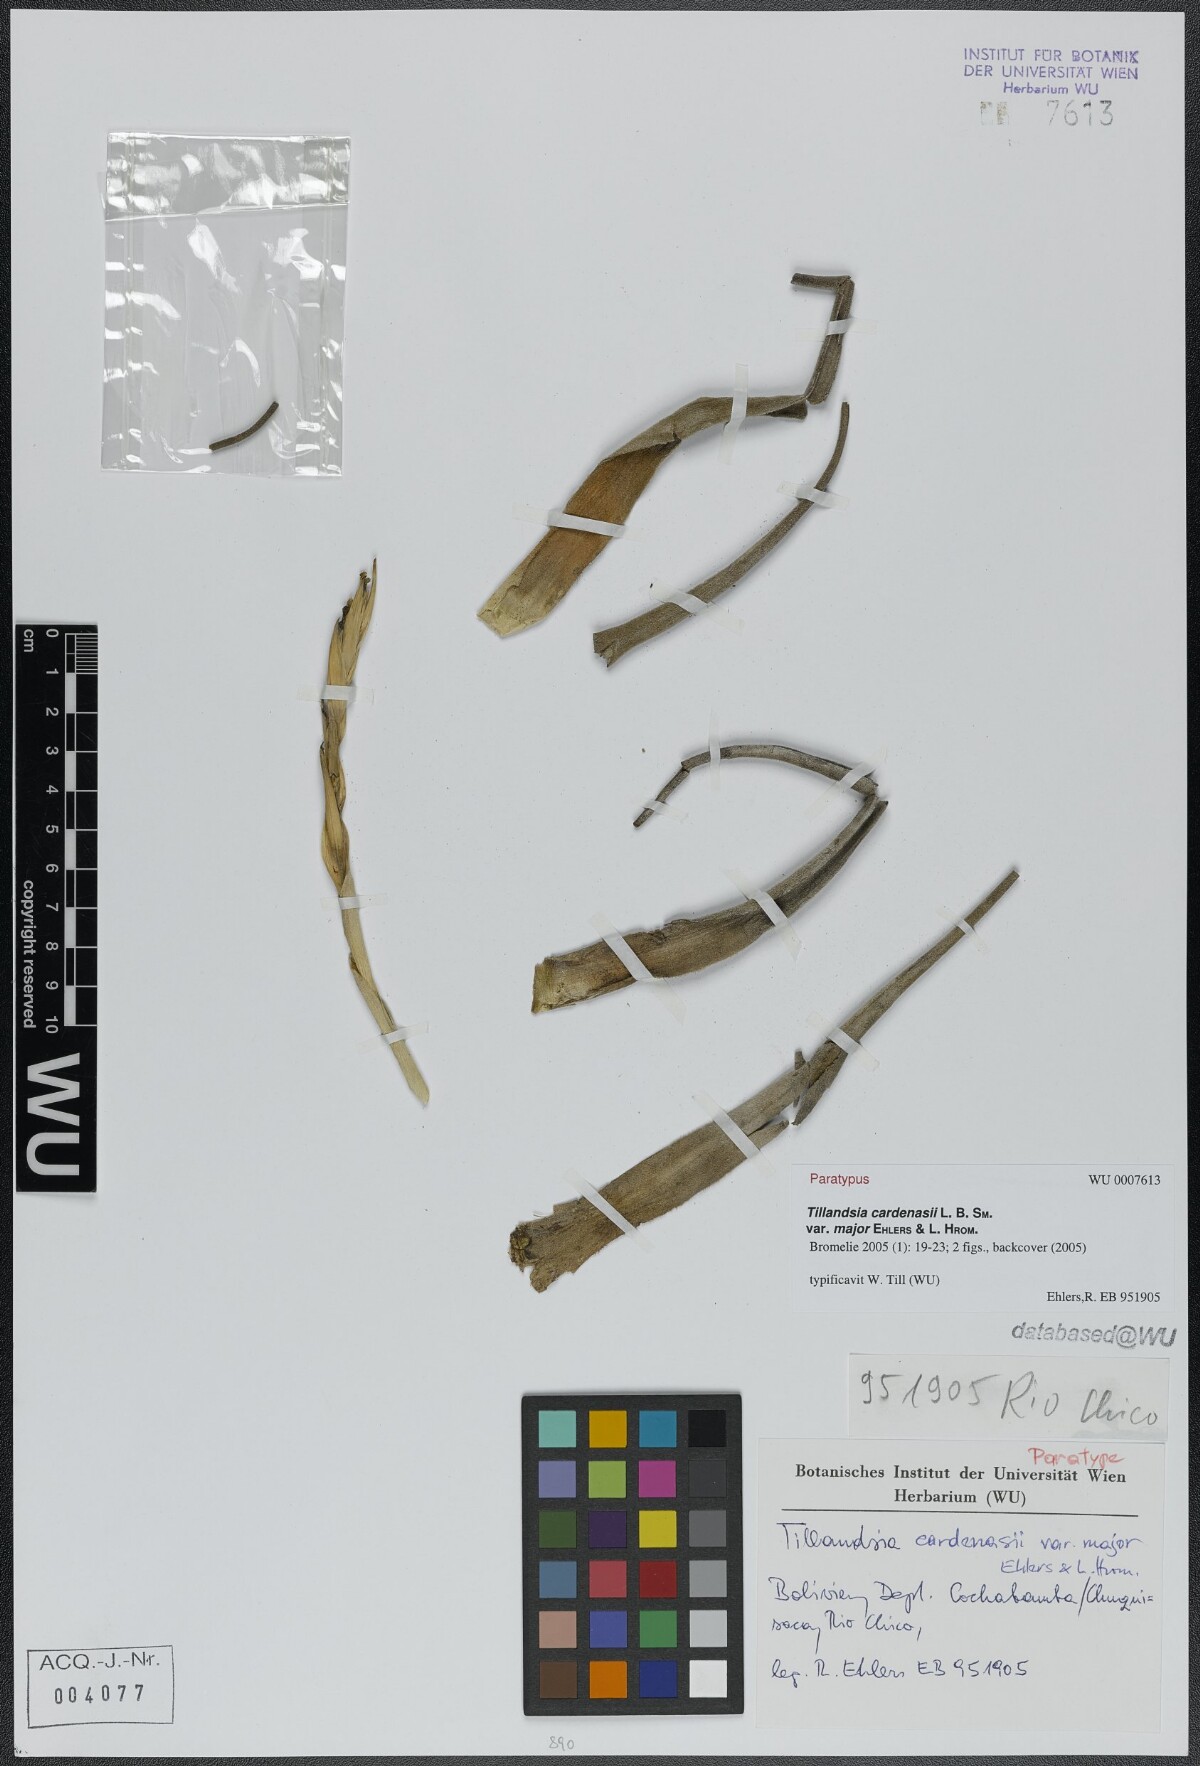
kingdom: Plantae
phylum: Tracheophyta
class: Liliopsida
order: Poales
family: Bromeliaceae
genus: Tillandsia
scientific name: Tillandsia cardenasii
